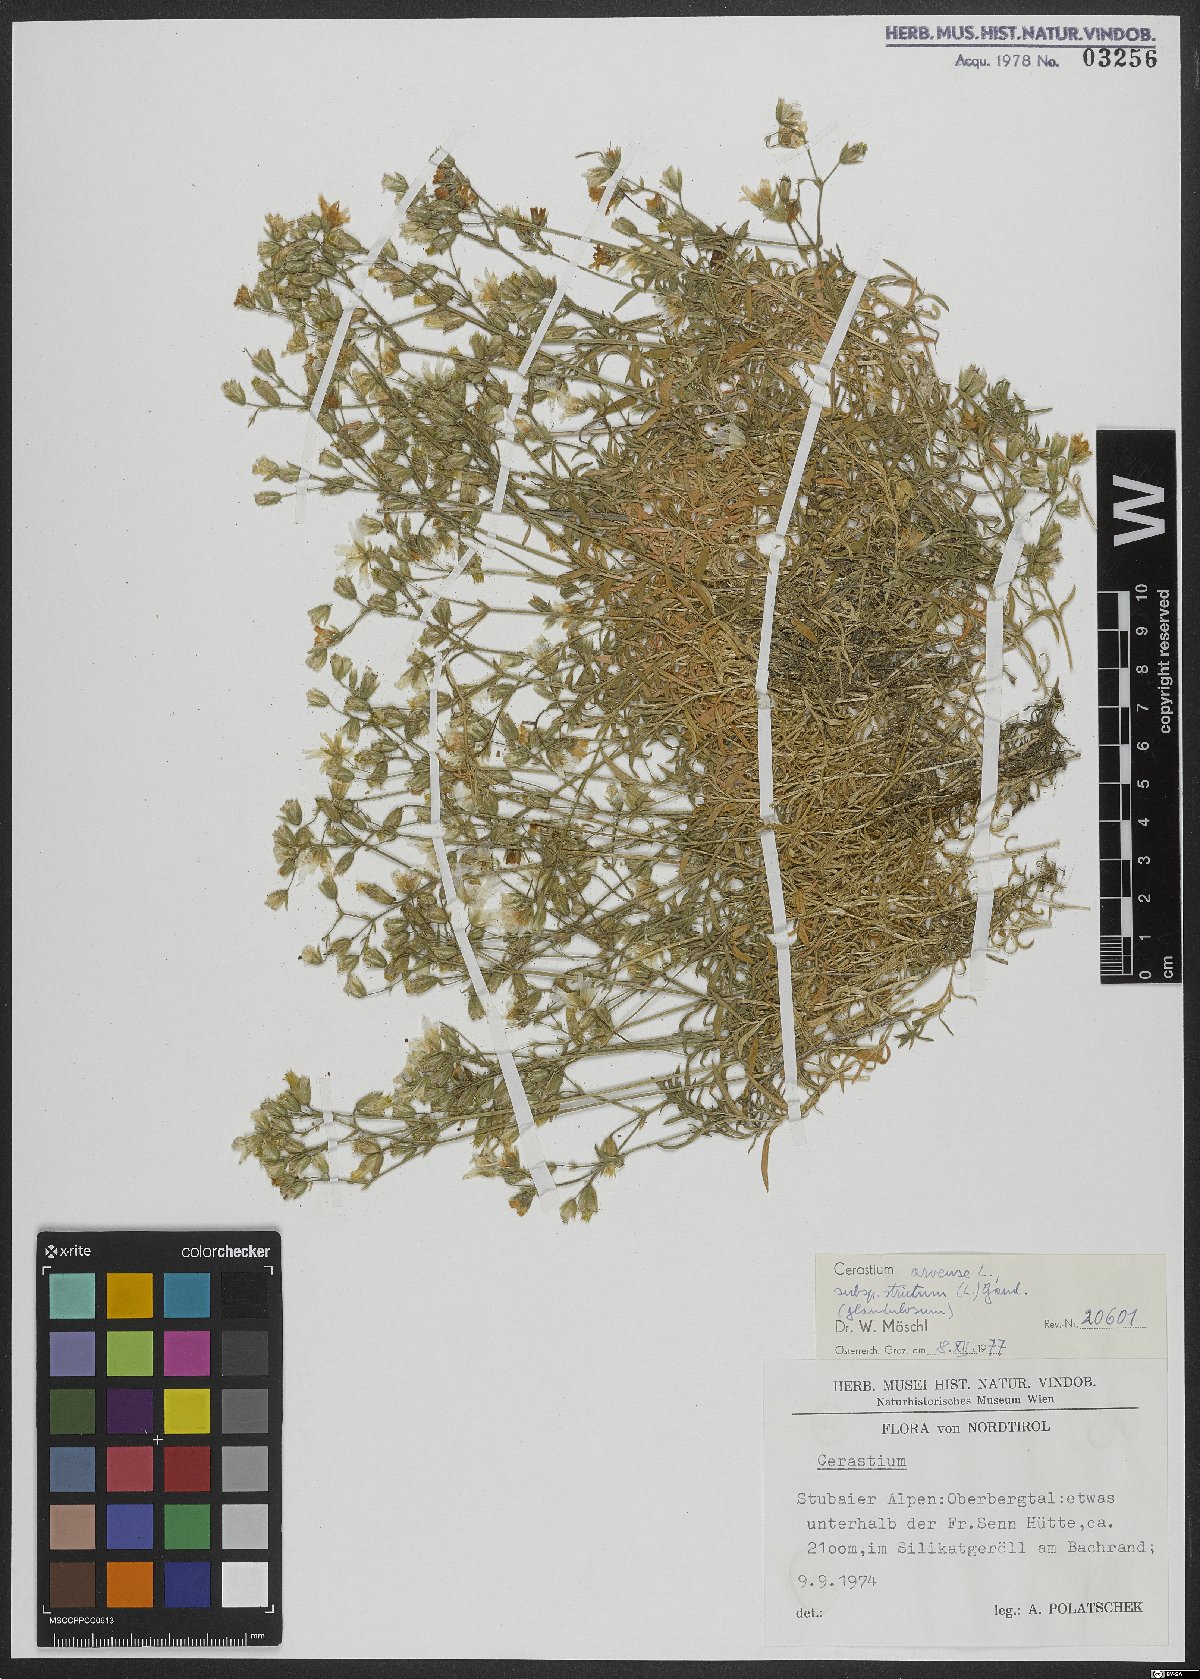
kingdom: Plantae
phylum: Tracheophyta
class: Magnoliopsida
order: Caryophyllales
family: Caryophyllaceae
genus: Cerastium
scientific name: Cerastium elongatum
